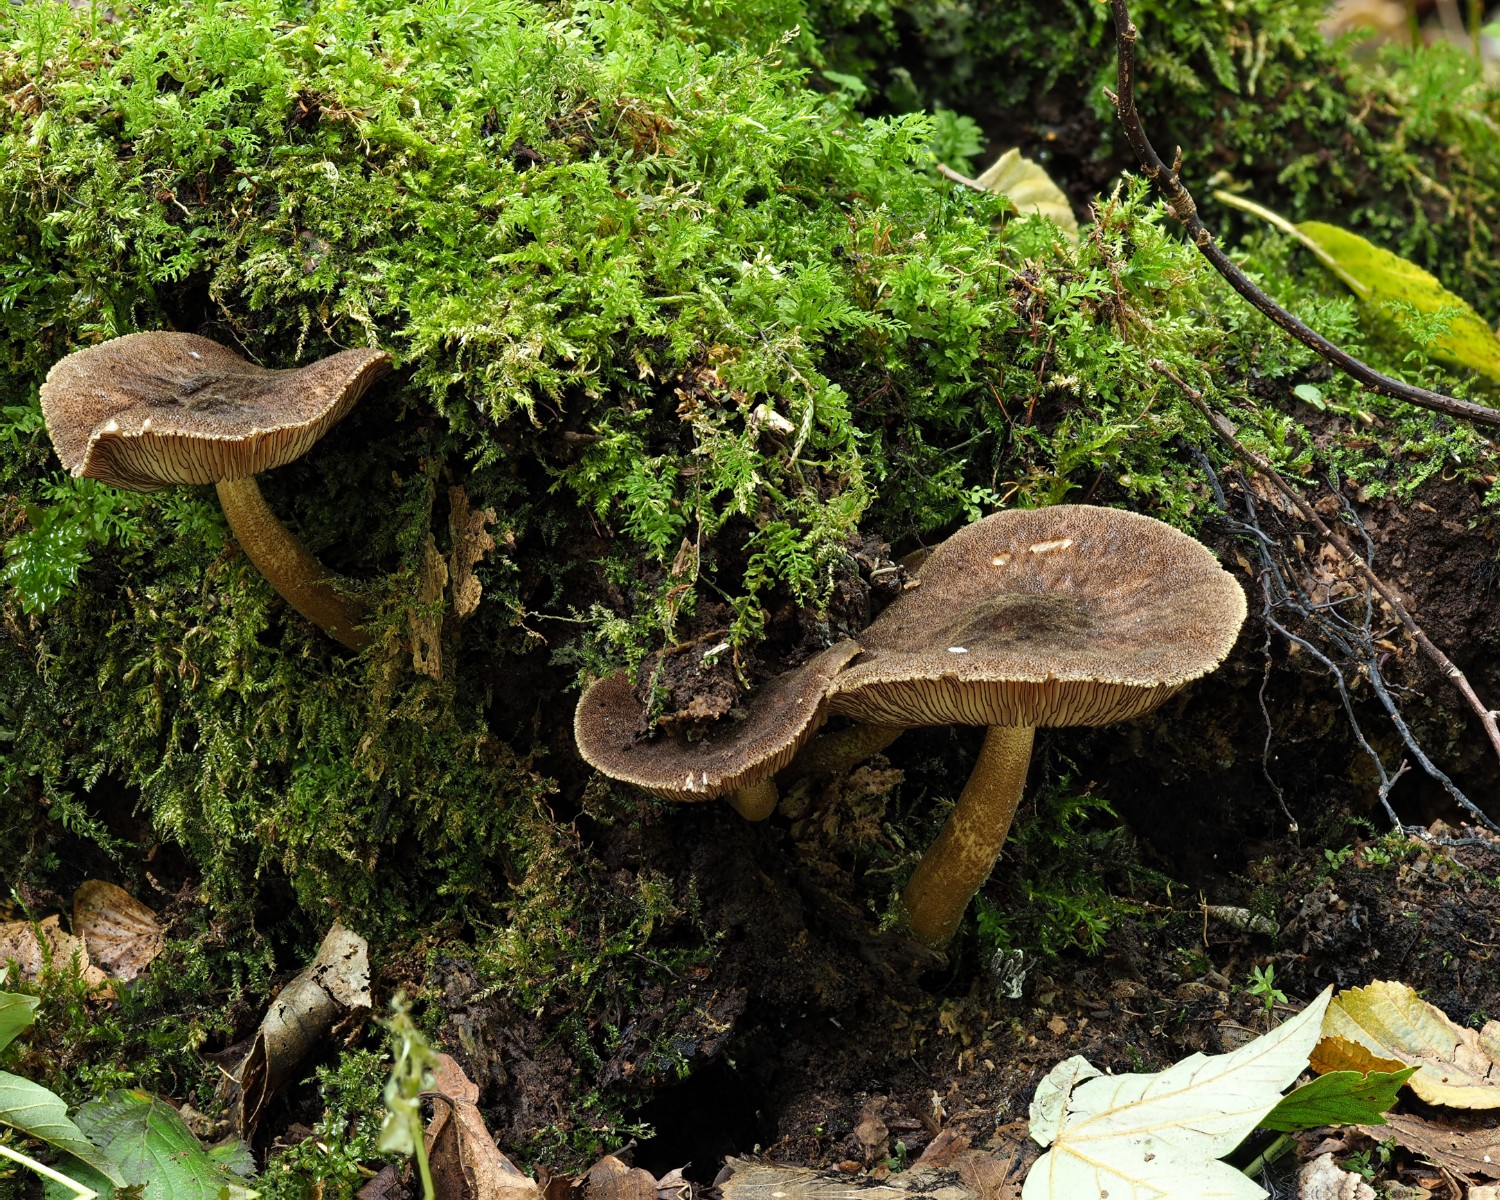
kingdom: Fungi
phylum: Basidiomycota
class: Agaricomycetes
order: Agaricales
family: Pluteaceae
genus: Pluteus
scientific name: Pluteus umbrosus
